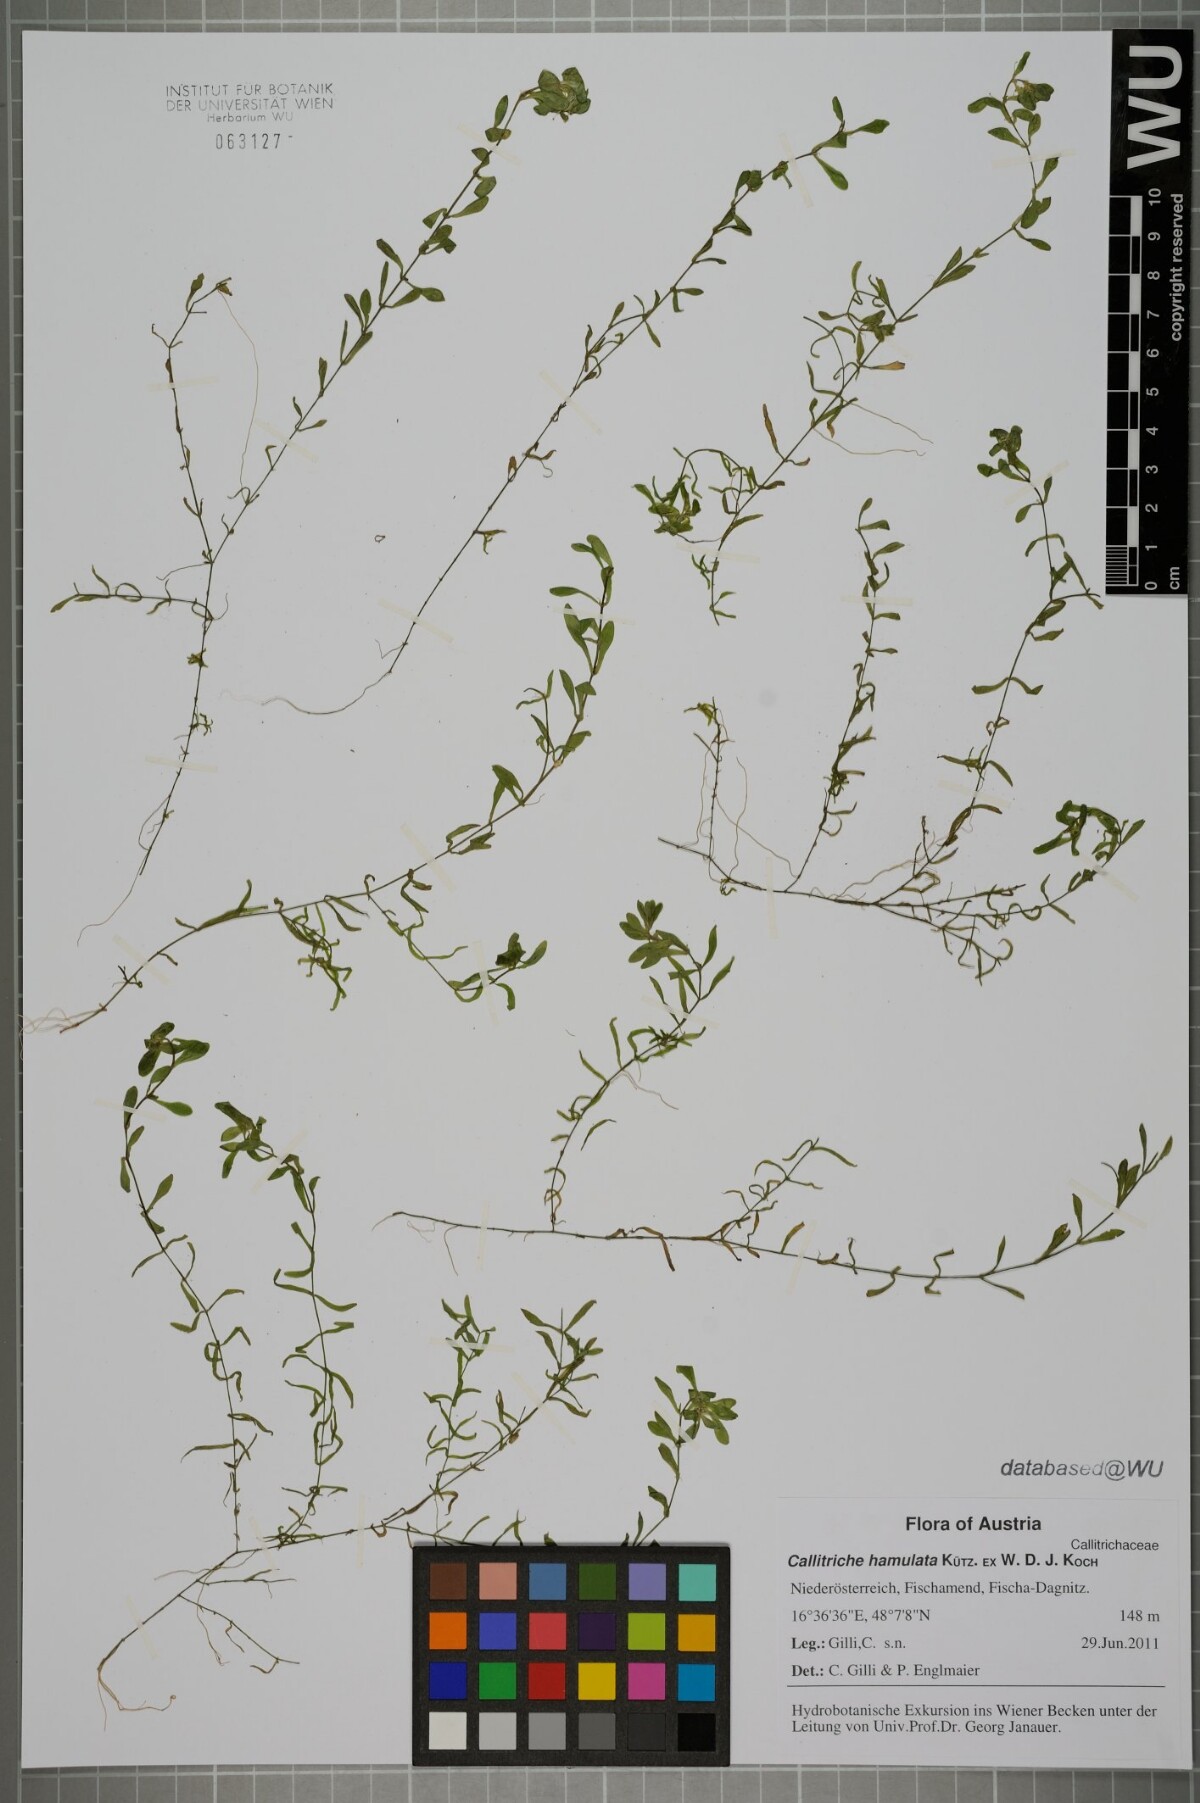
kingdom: Plantae
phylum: Tracheophyta
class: Magnoliopsida
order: Lamiales
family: Plantaginaceae
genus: Callitriche
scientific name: Callitriche hamulata
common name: Intermediate water-starwort
